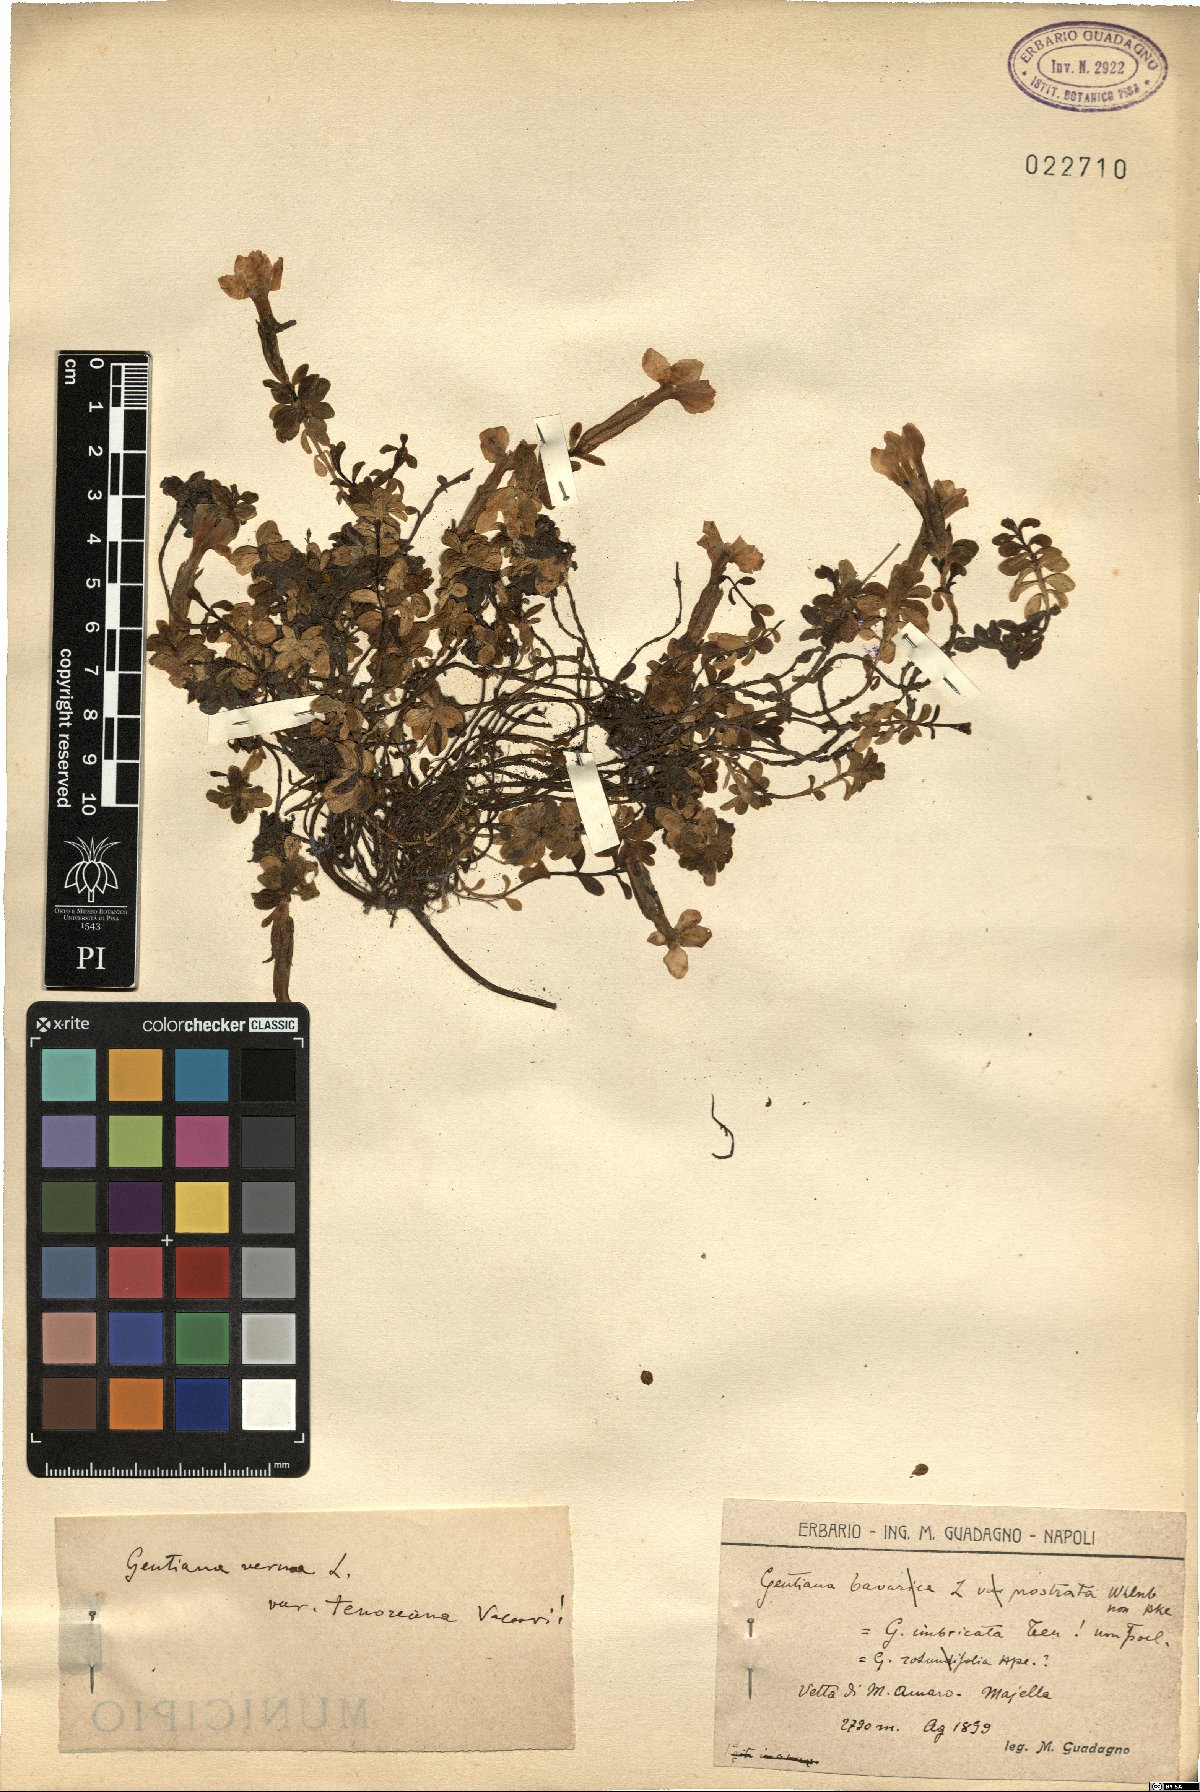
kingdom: Plantae
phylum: Tracheophyta
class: Magnoliopsida
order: Gentianales
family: Gentianaceae
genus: Gentiana
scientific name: Gentiana verna
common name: Spring gentian
